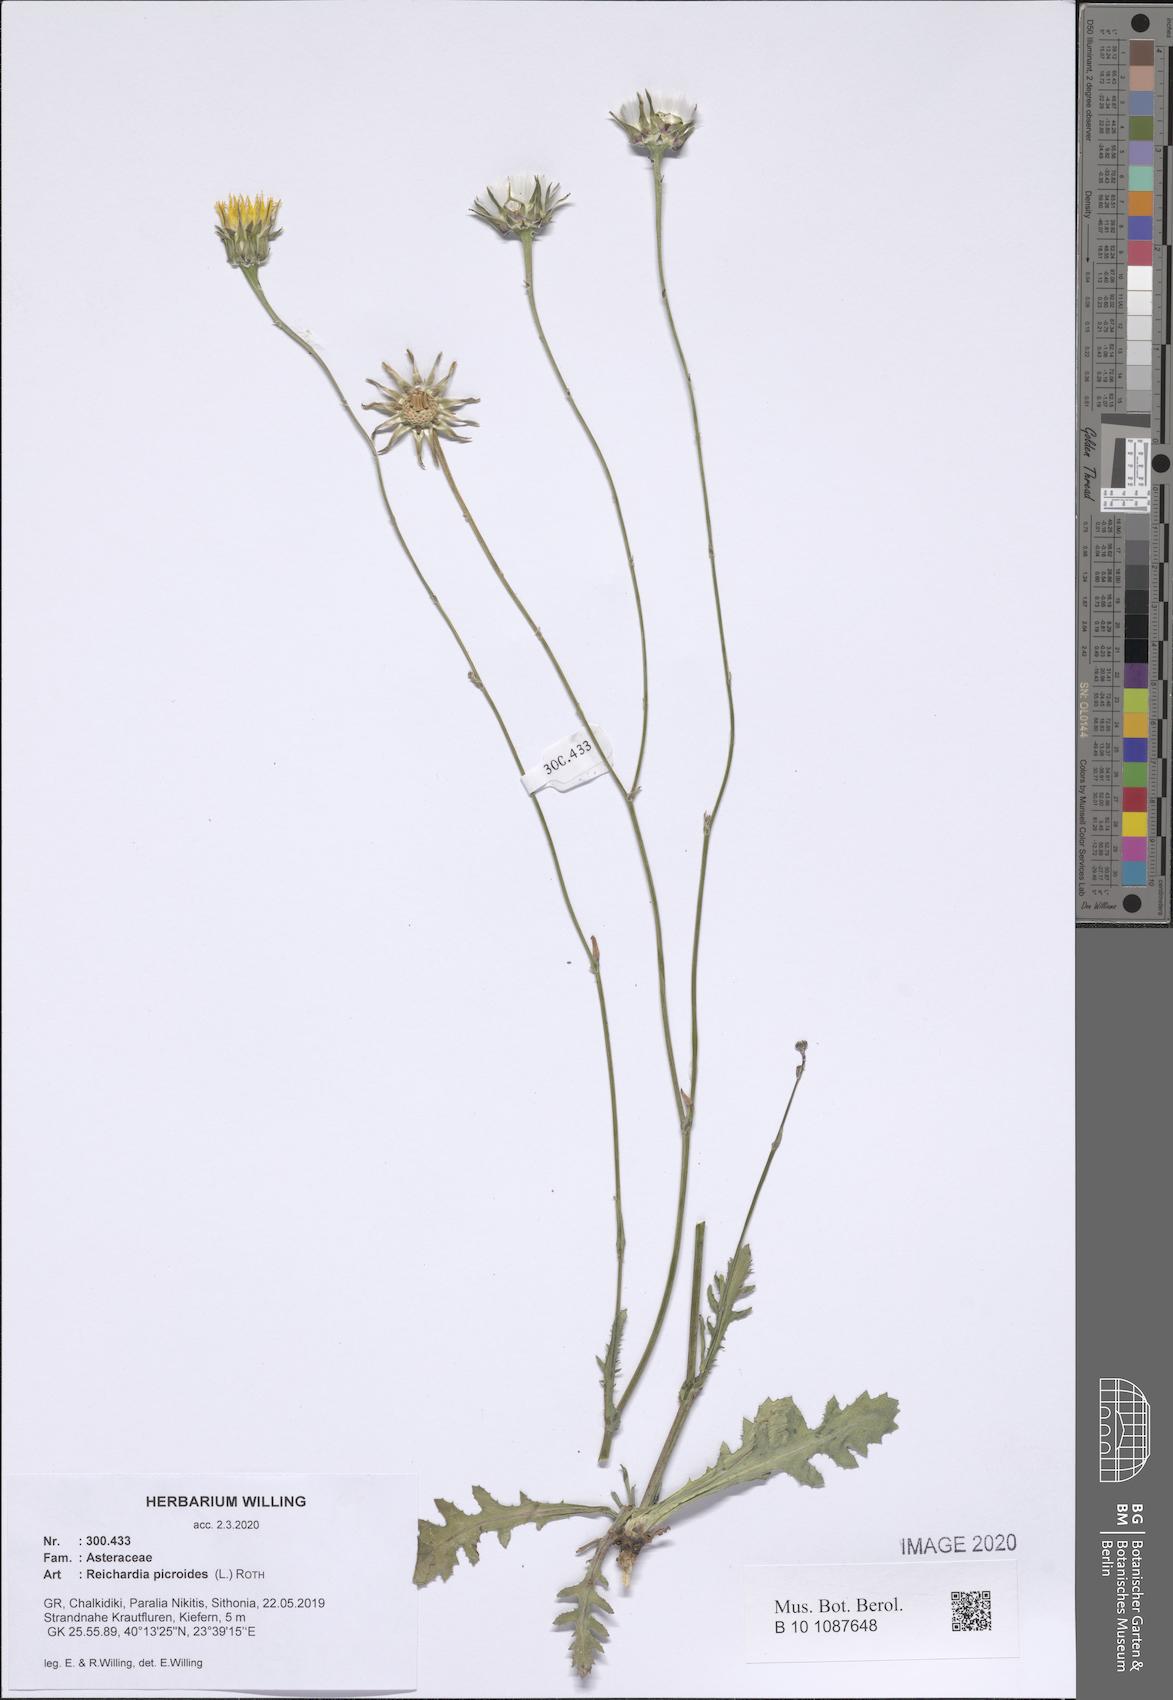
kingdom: Plantae
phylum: Tracheophyta
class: Magnoliopsida
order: Asterales
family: Asteraceae
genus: Reichardia
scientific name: Reichardia picroides
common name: Common brighteyes
